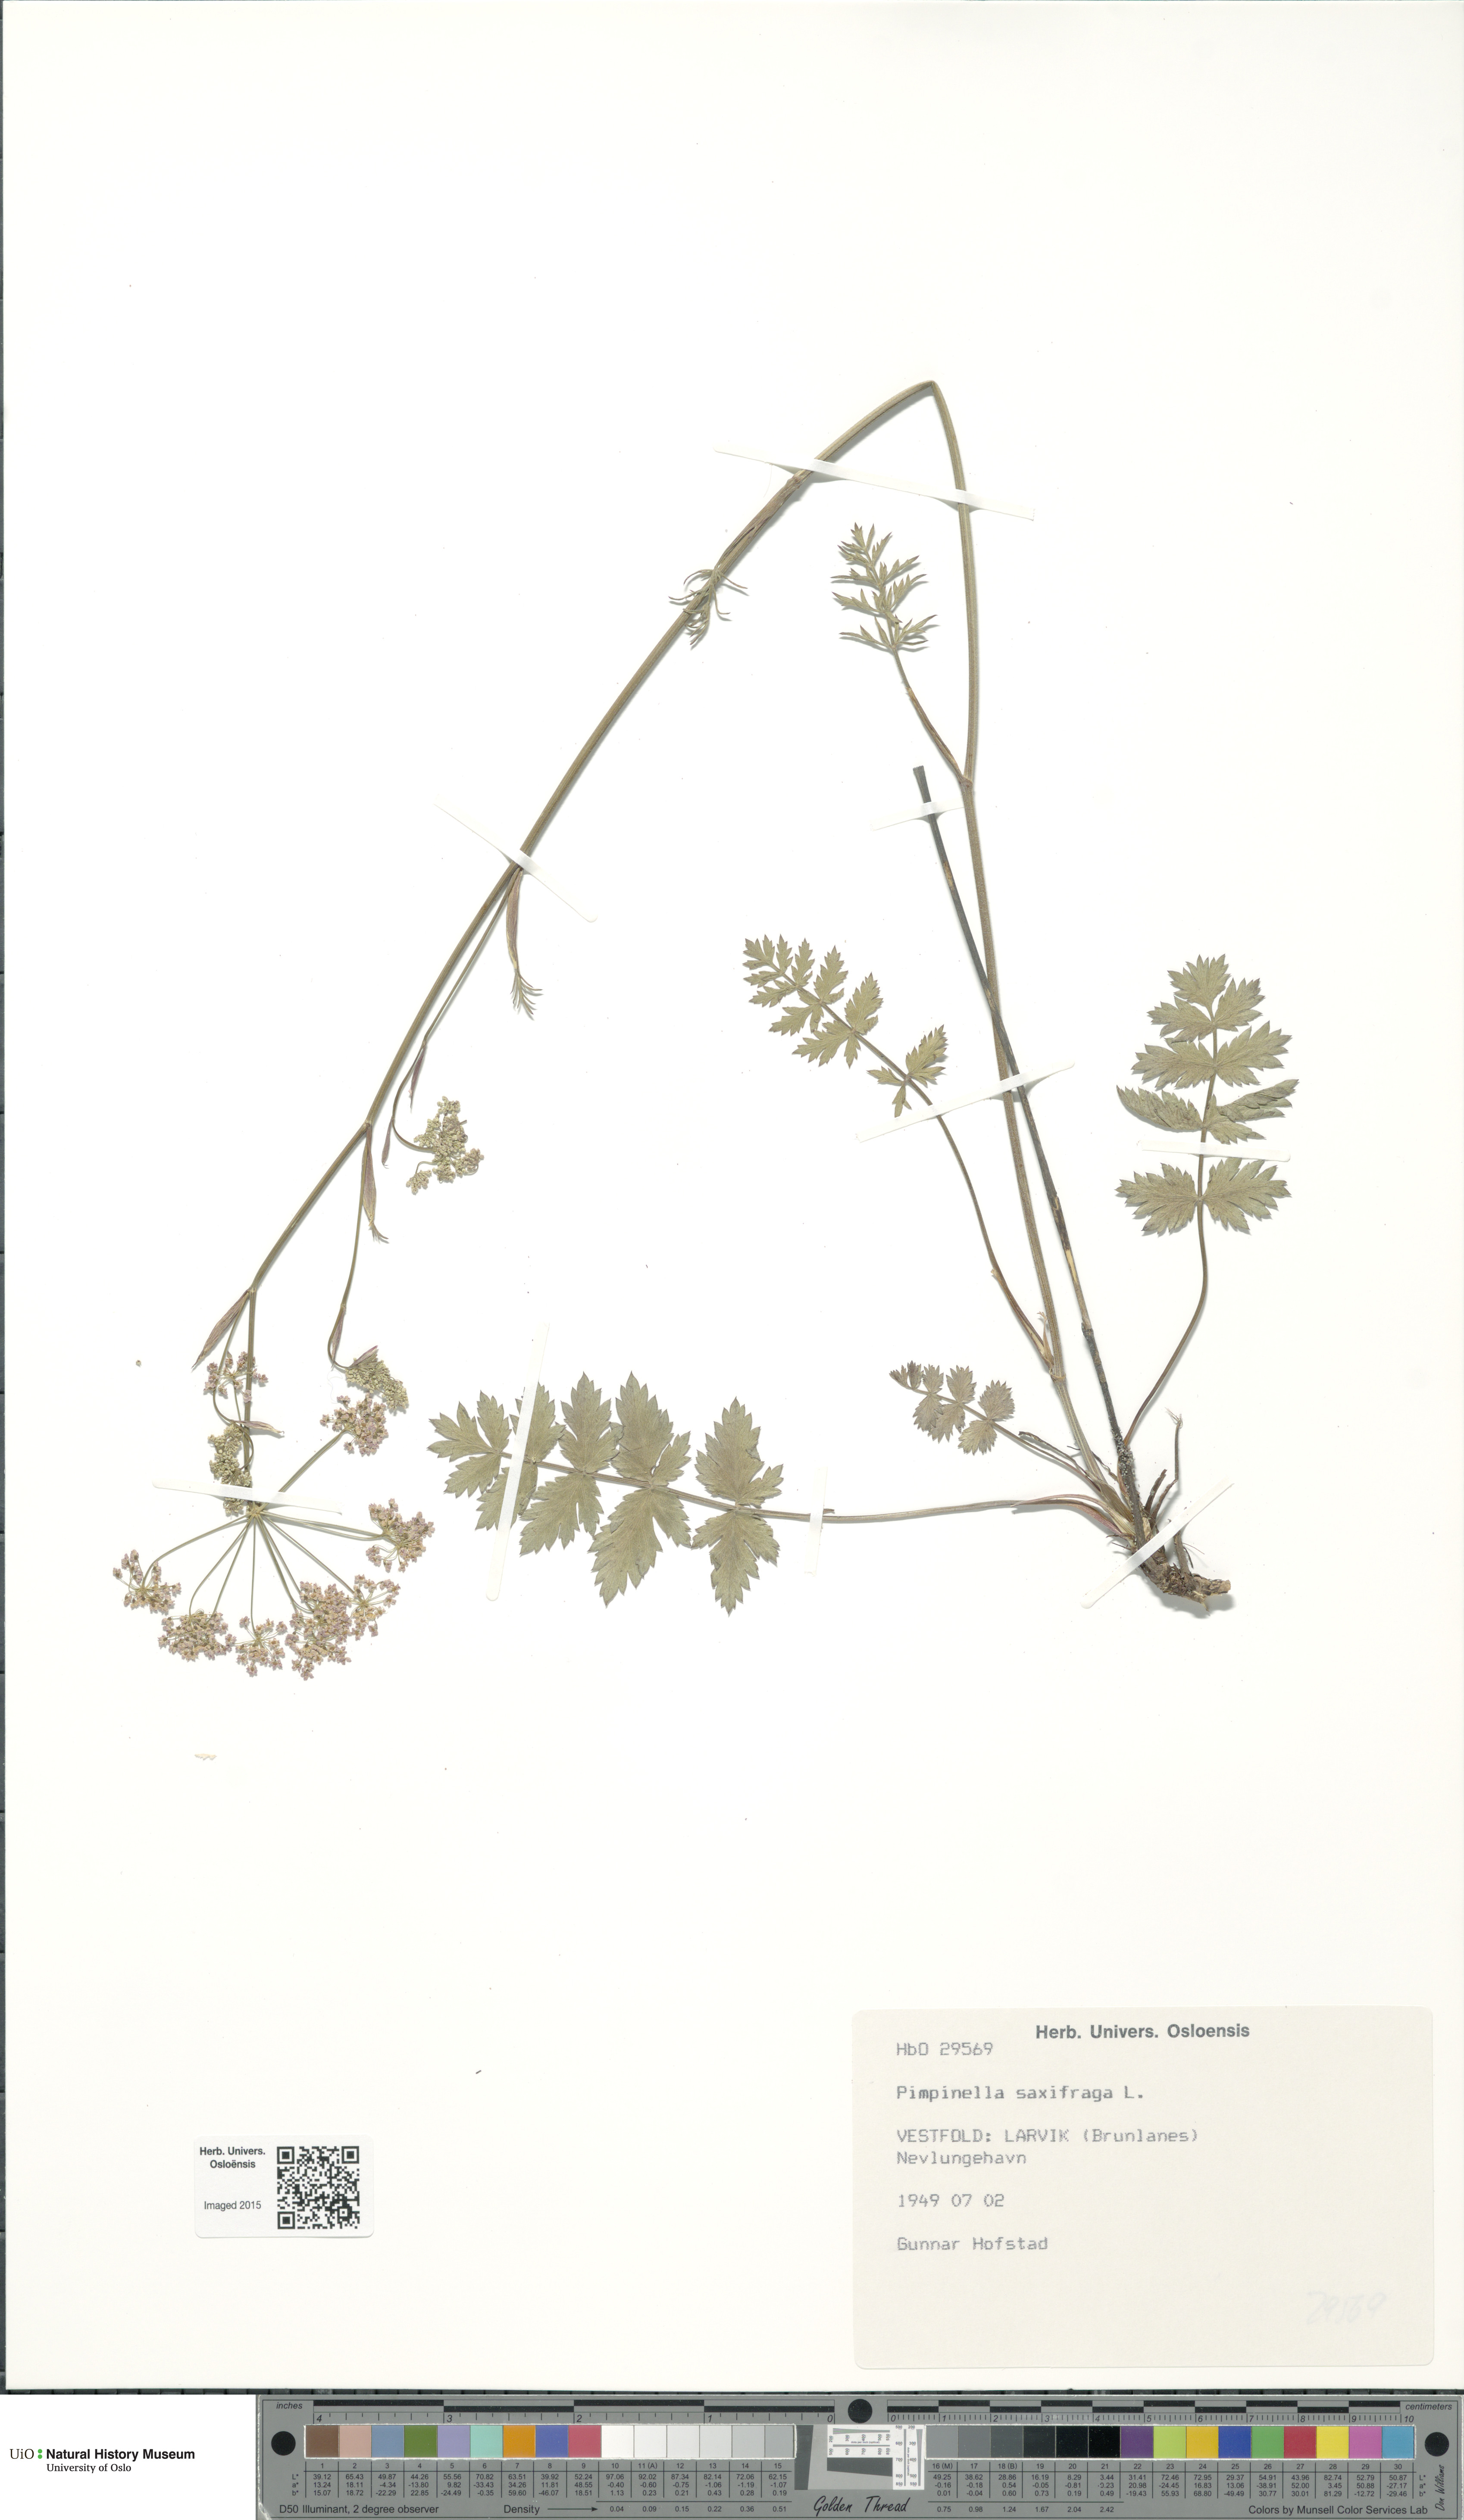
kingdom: Plantae
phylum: Tracheophyta
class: Magnoliopsida
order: Apiales
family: Apiaceae
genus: Pimpinella
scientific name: Pimpinella saxifraga
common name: Burnet-saxifrage
